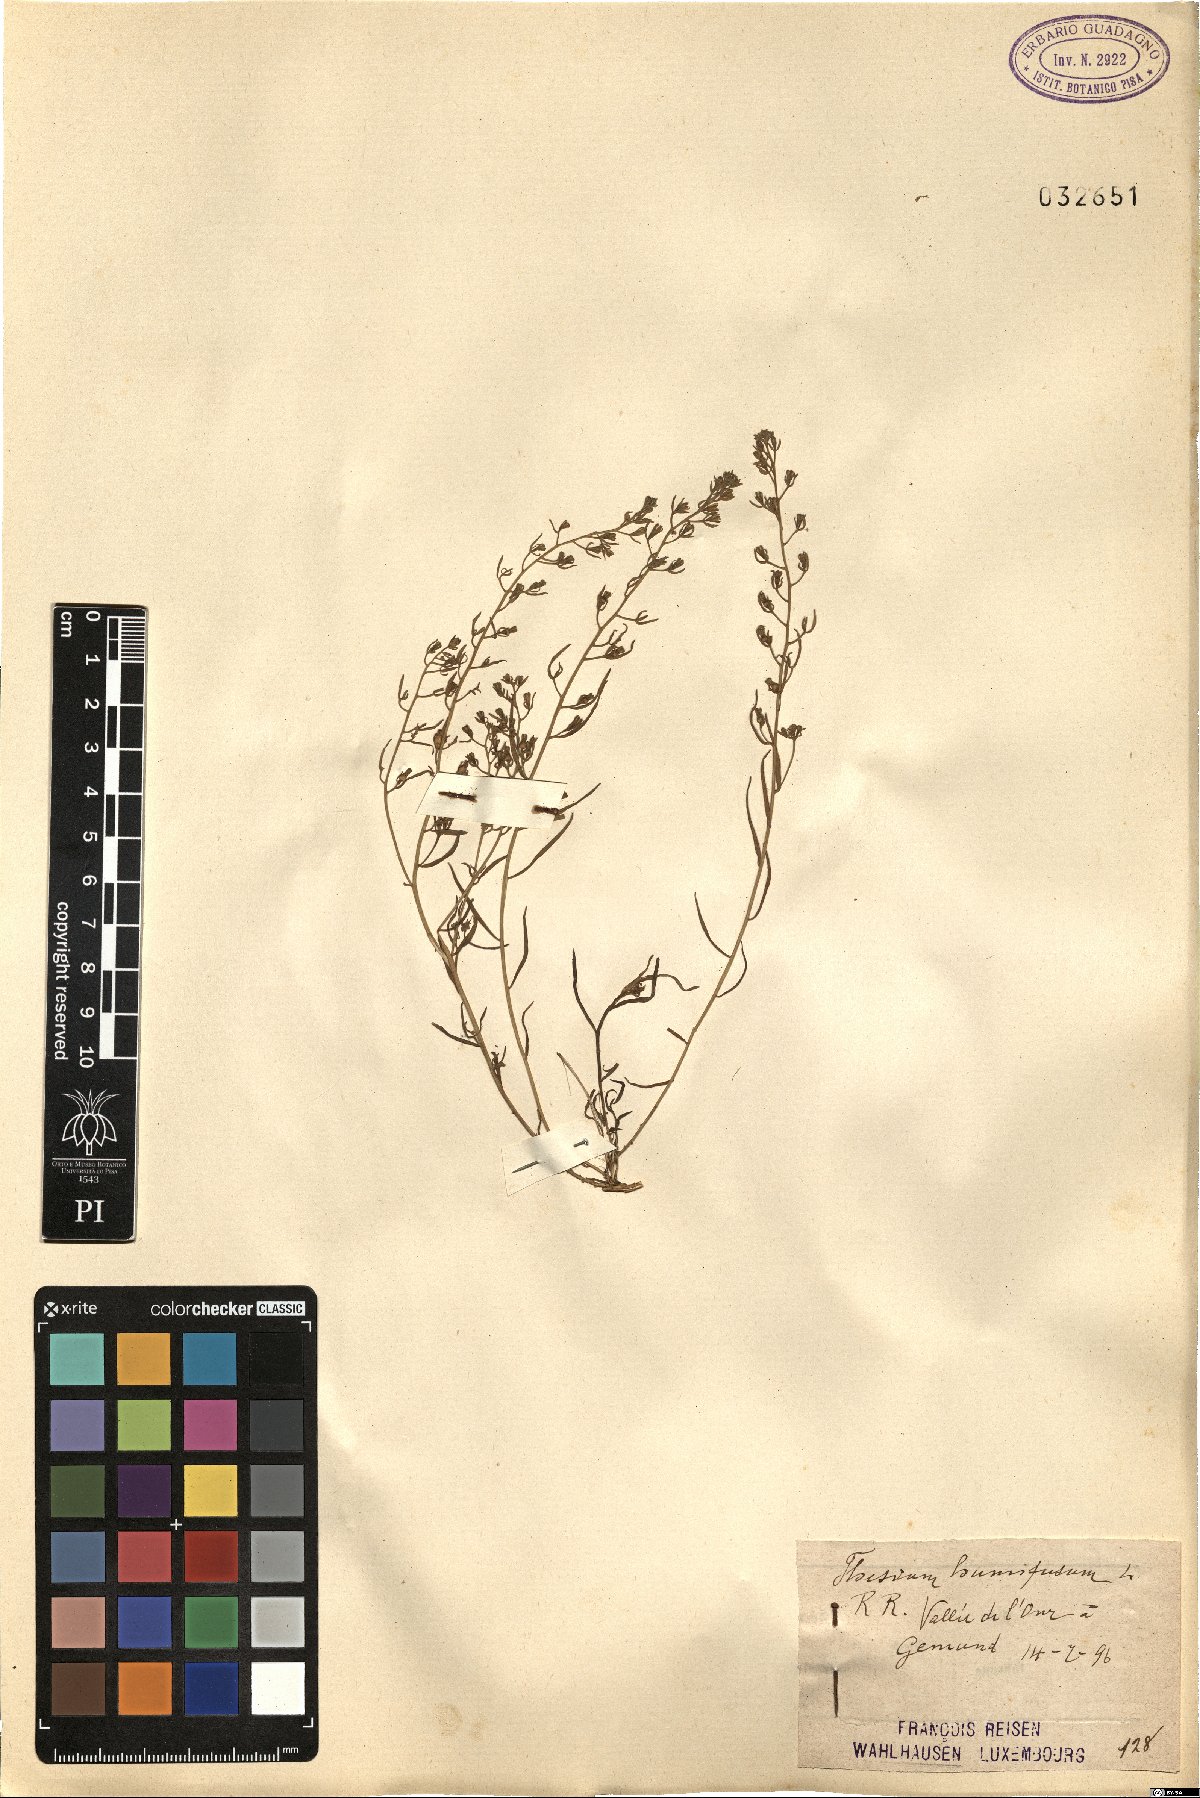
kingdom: Plantae
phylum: Tracheophyta
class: Magnoliopsida
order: Santalales
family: Thesiaceae
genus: Thesium
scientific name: Thesium humifusum
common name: Bastard-toadflax
